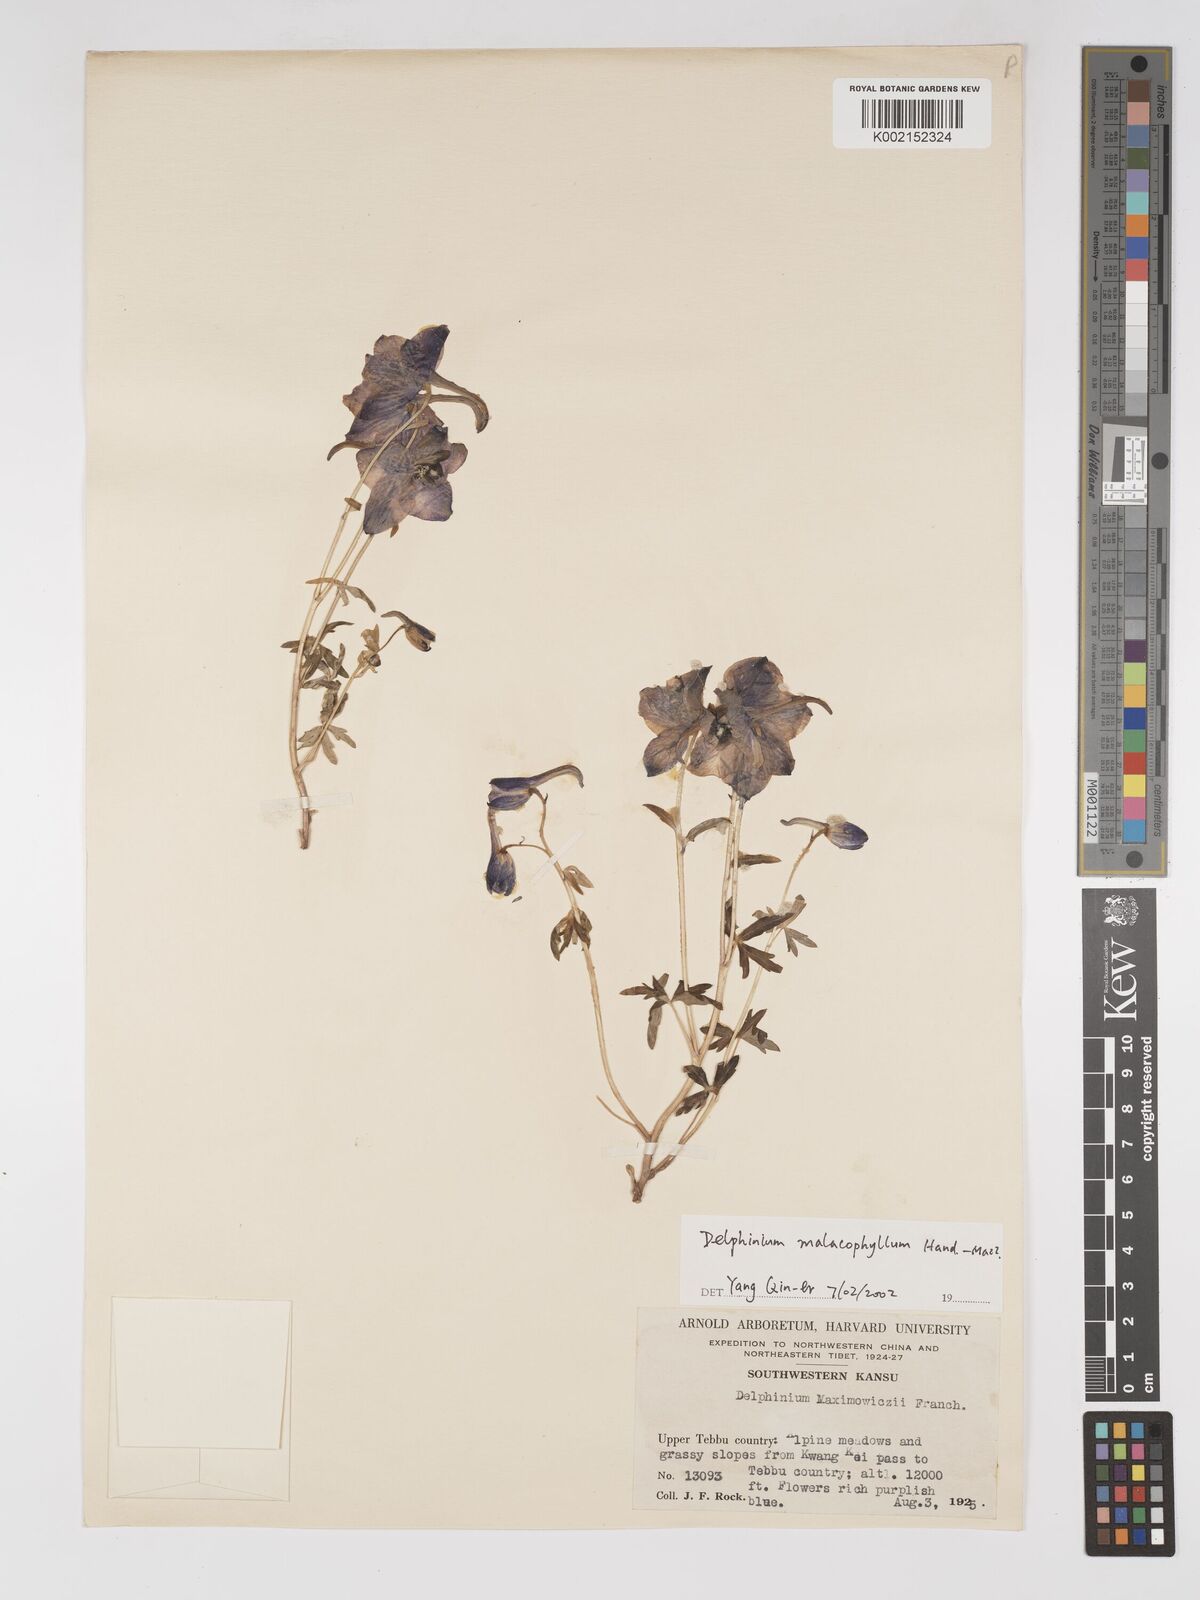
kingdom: Plantae
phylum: Tracheophyta
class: Magnoliopsida
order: Ranunculales
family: Ranunculaceae
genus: Delphinium
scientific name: Delphinium malacophyllum
